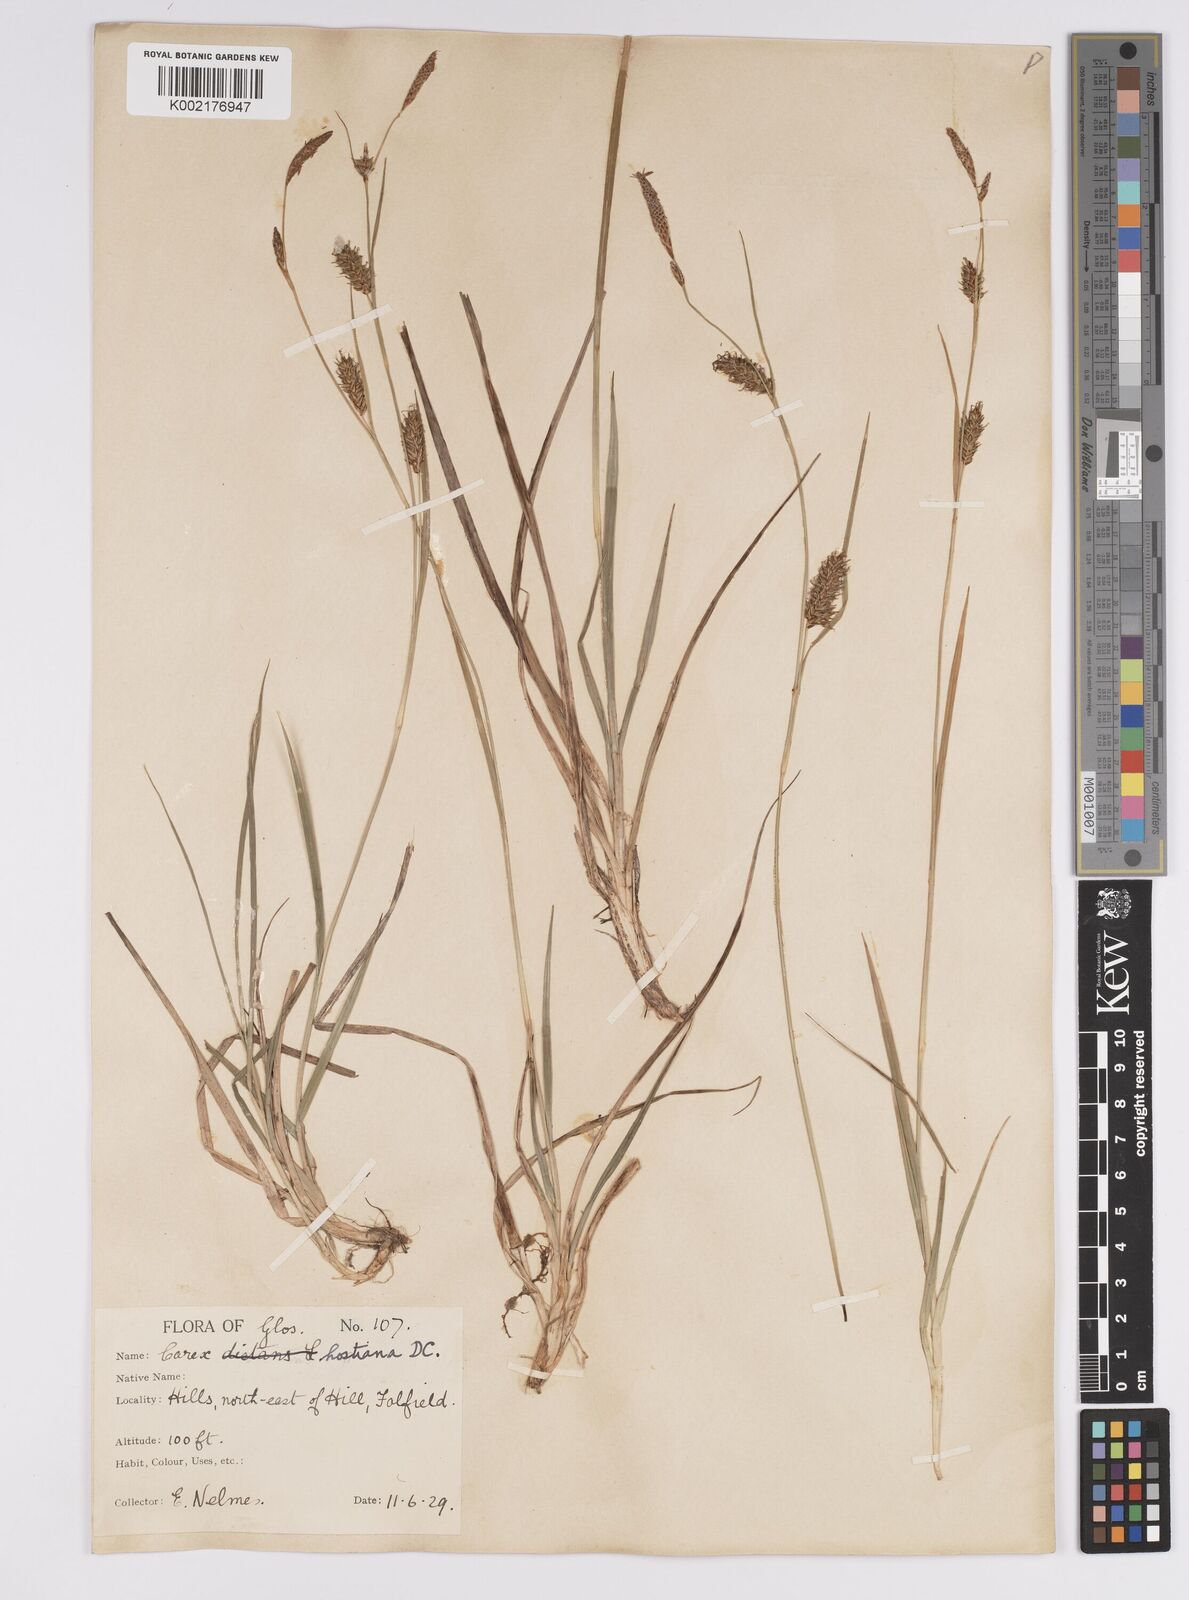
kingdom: Plantae
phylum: Tracheophyta
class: Liliopsida
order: Poales
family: Cyperaceae
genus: Carex
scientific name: Carex hostiana
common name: Tawny sedge
